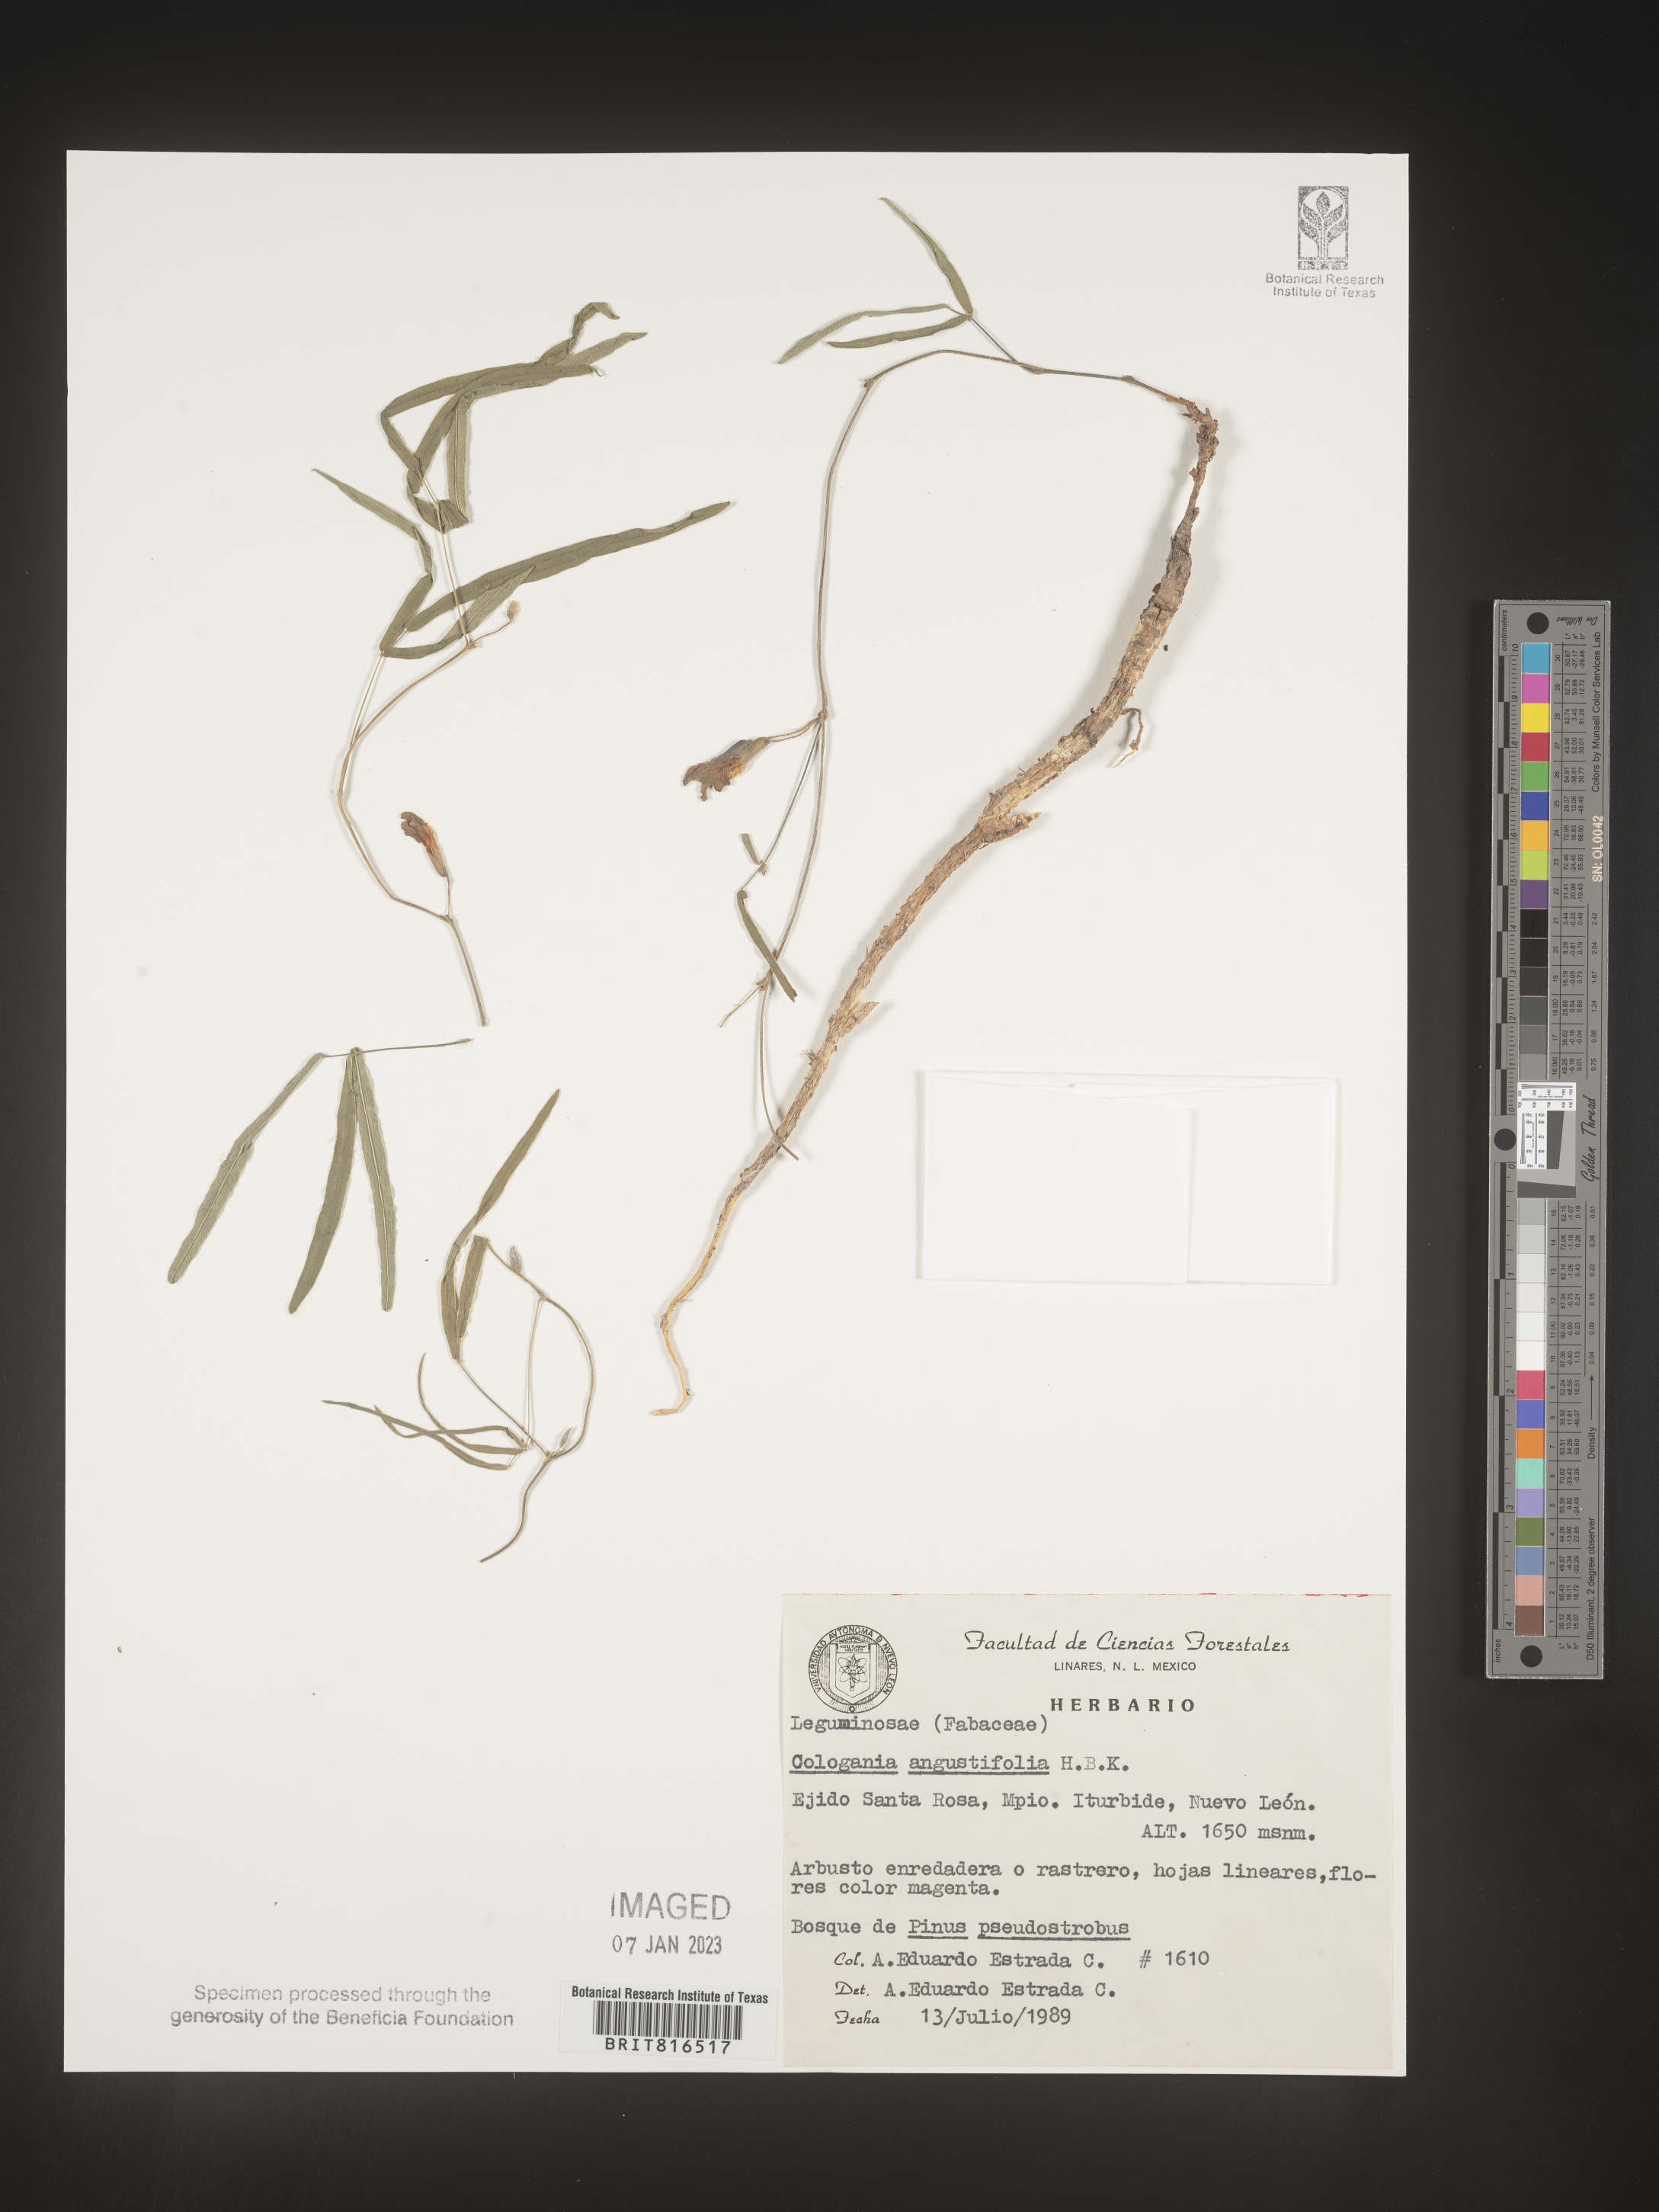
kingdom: Plantae
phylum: Tracheophyta
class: Magnoliopsida
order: Fabales
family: Fabaceae
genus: Cologania
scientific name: Cologania angustifolia
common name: Longleaf cologania
